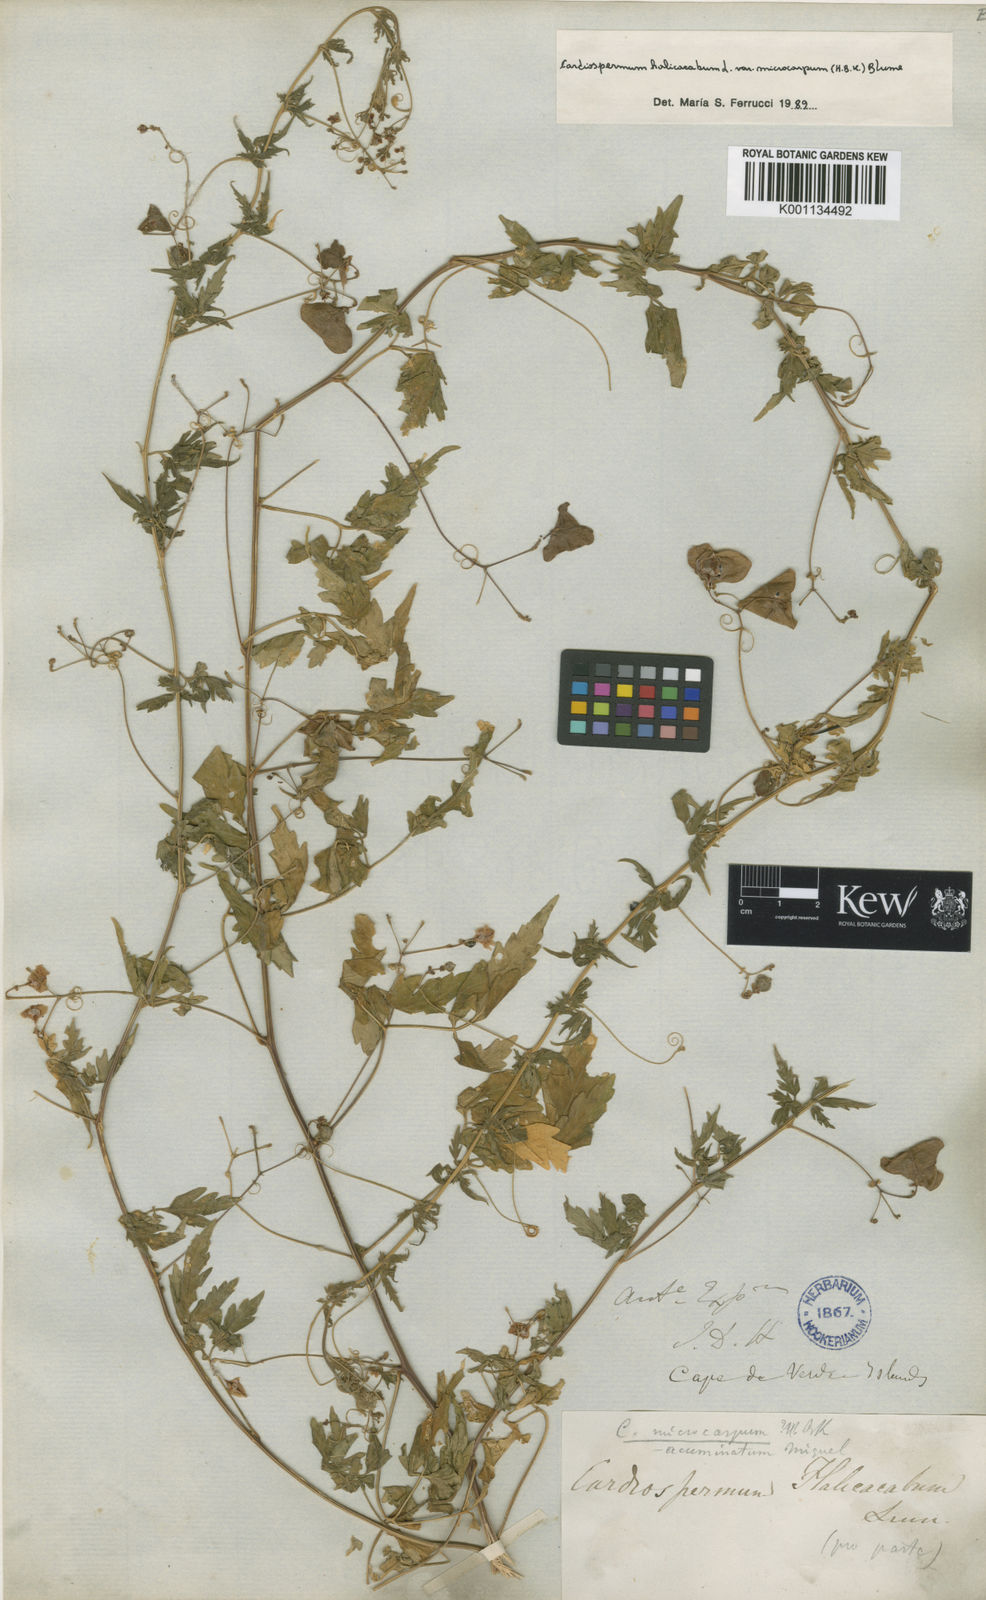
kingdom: Plantae
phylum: Tracheophyta
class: Magnoliopsida
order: Sapindales
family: Sapindaceae
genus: Cardiospermum
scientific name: Cardiospermum microcarpum
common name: Heart seed
